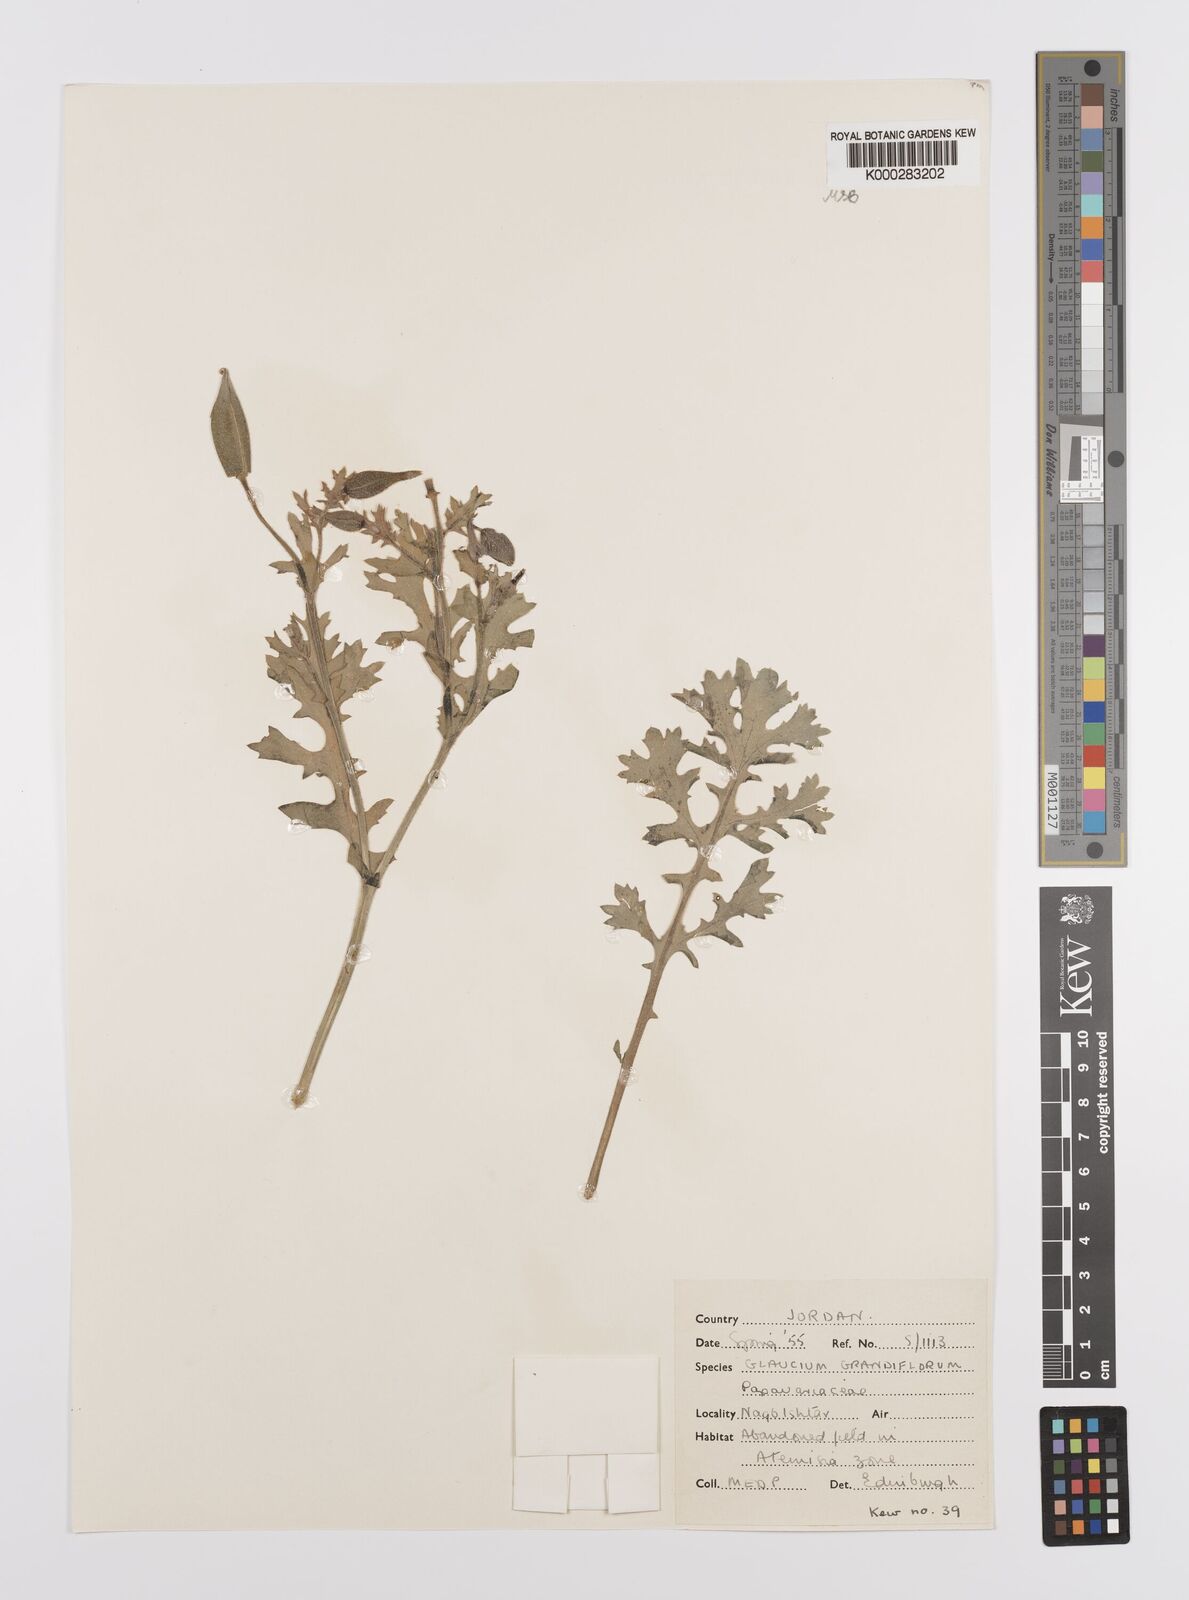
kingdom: Plantae
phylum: Tracheophyta
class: Magnoliopsida
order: Ranunculales
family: Papaveraceae
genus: Glaucium
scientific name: Glaucium grandiflorum
